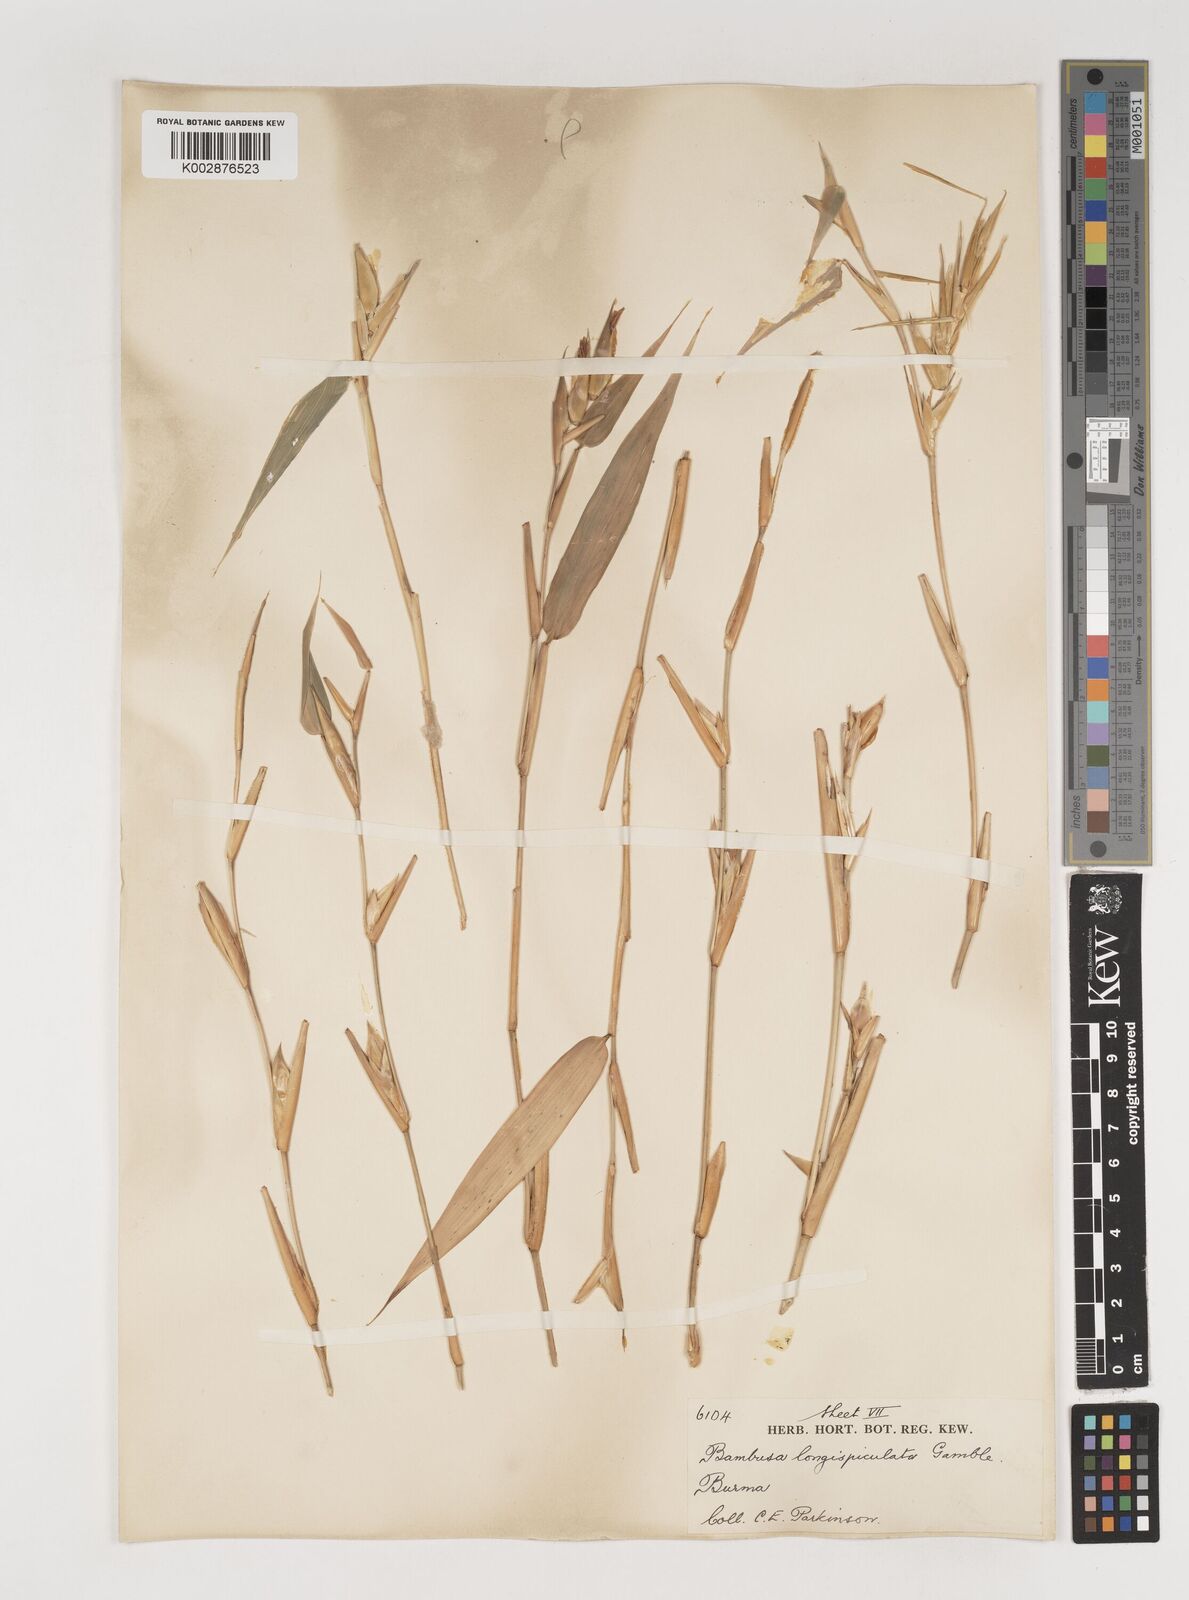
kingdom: Plantae
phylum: Tracheophyta
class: Liliopsida
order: Poales
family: Poaceae
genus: Bambusa
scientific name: Bambusa longispiculata
